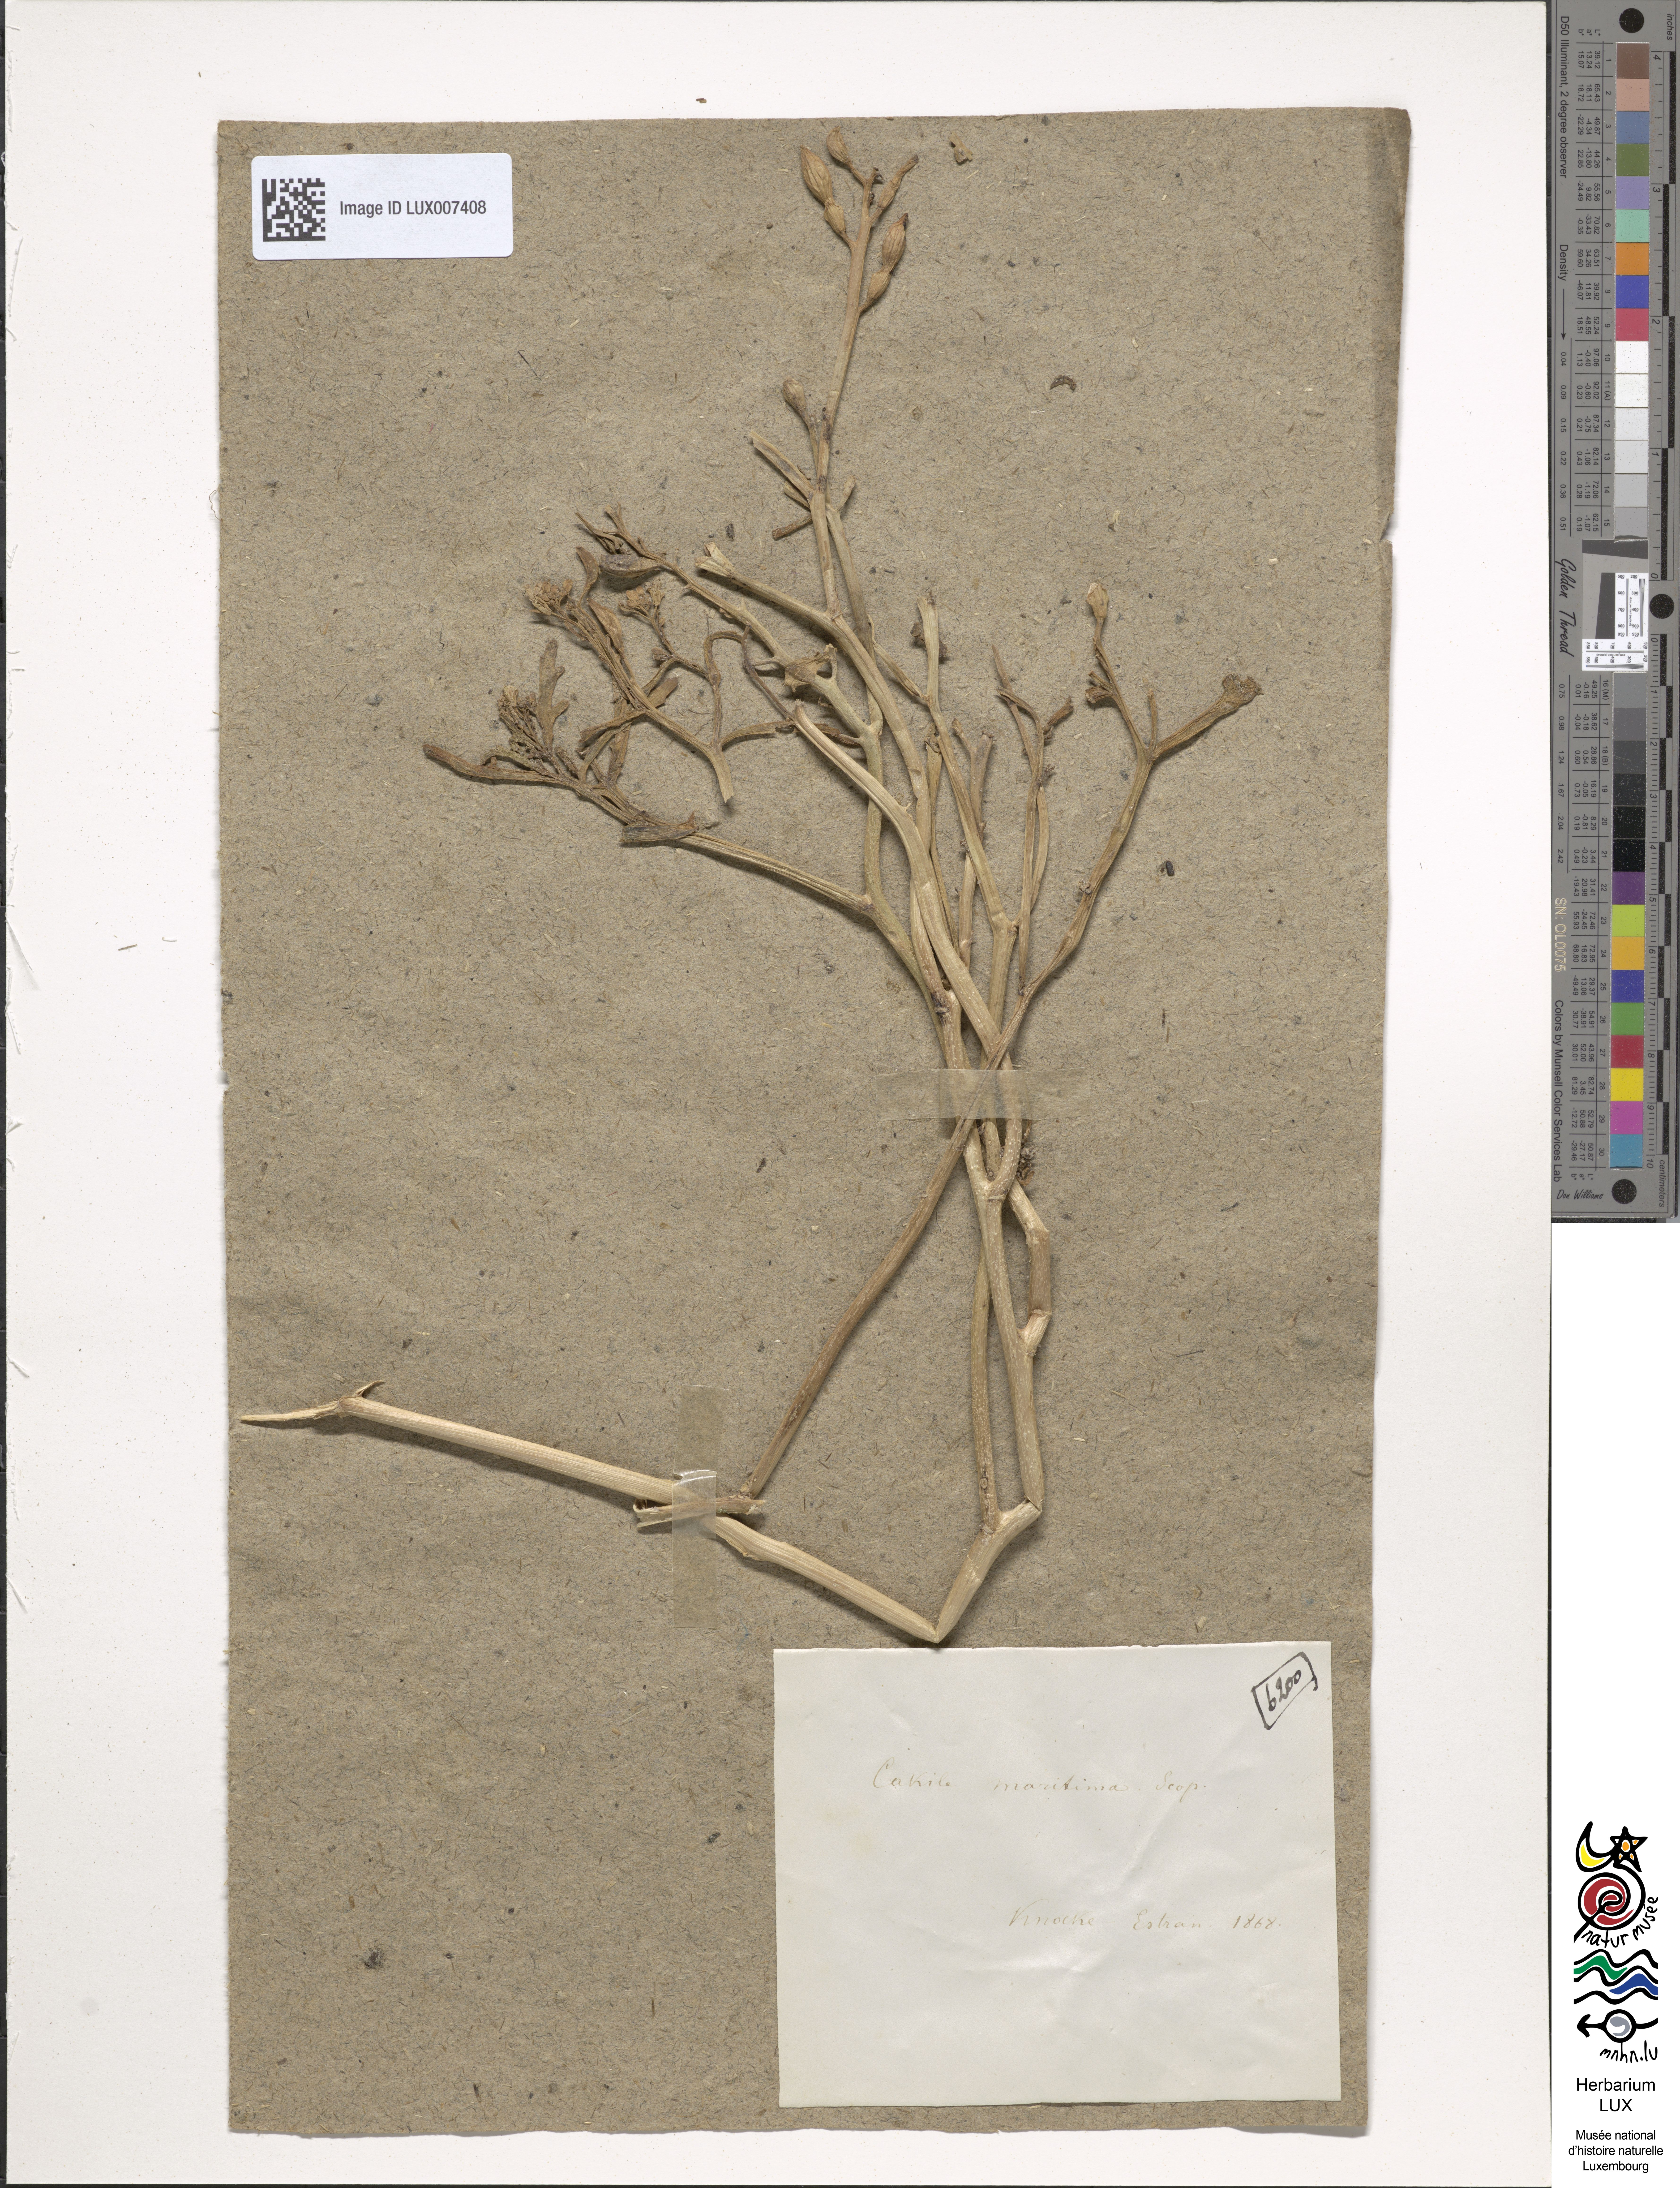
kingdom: Plantae
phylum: Tracheophyta
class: Magnoliopsida
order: Brassicales
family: Brassicaceae
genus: Cakile
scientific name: Cakile maritima
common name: Sea rocket
